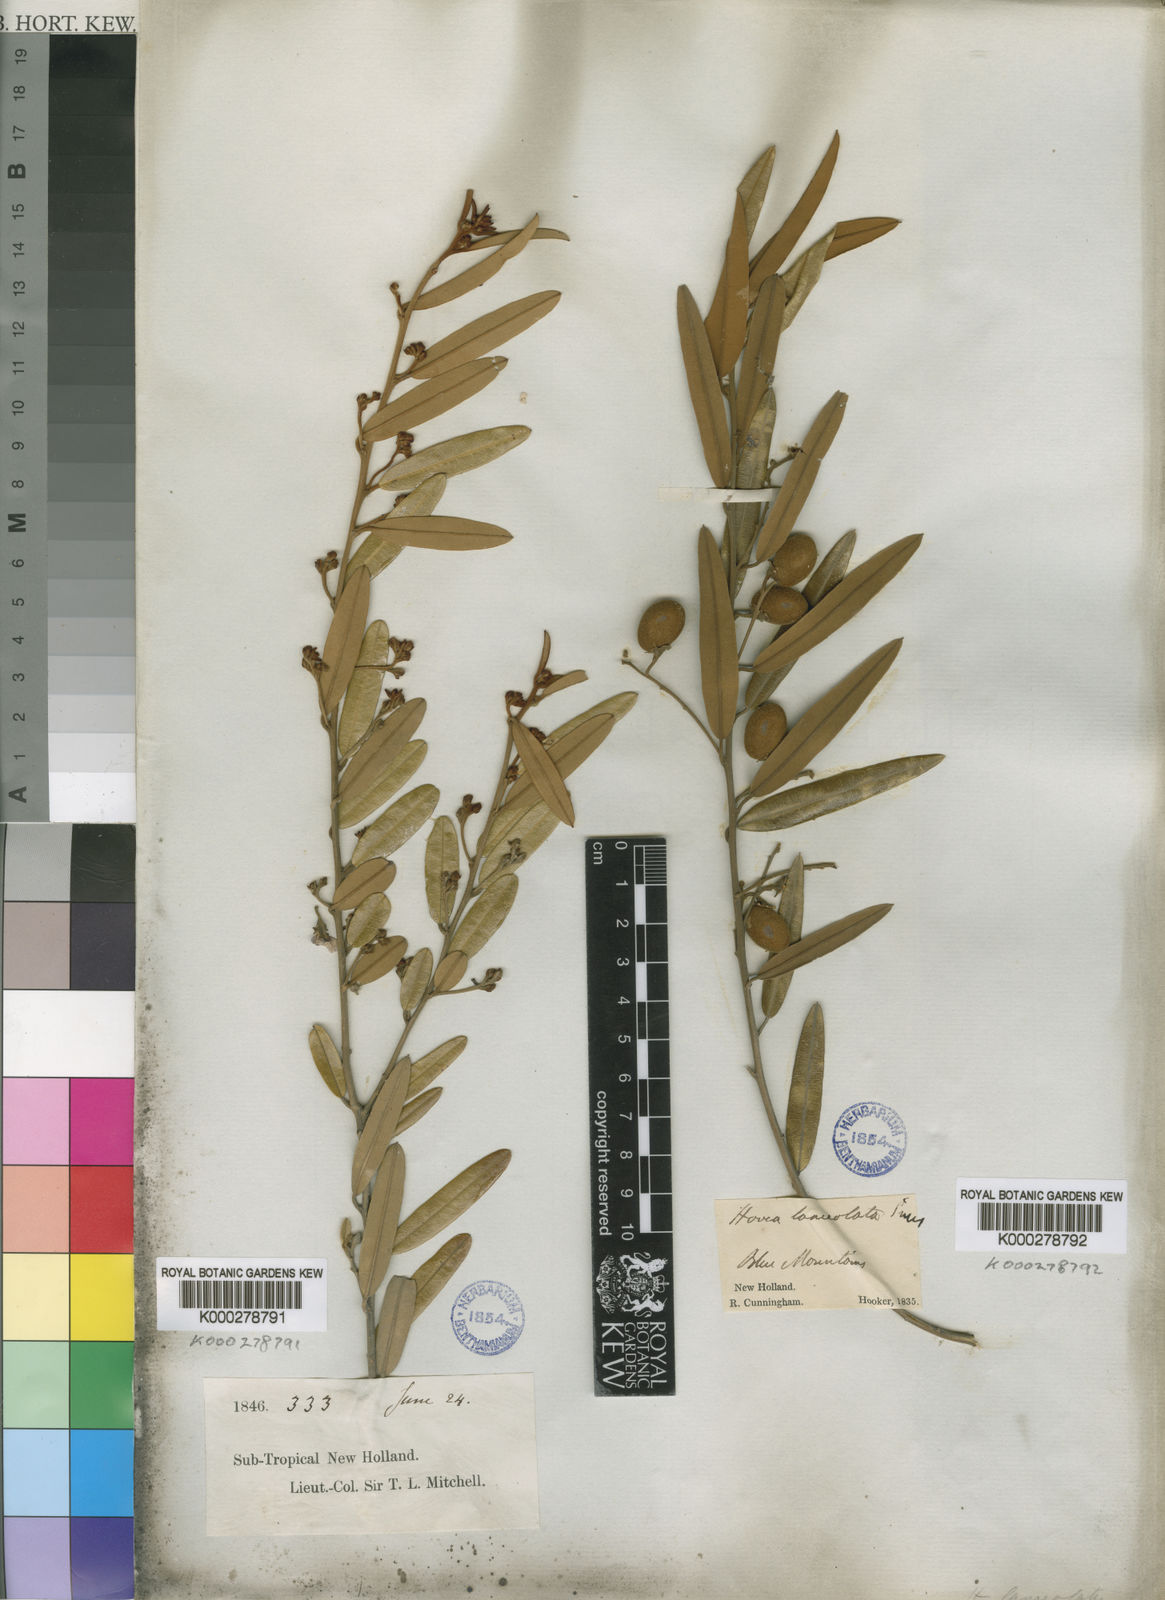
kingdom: Plantae
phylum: Tracheophyta
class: Magnoliopsida
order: Fabales
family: Fabaceae
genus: Hovea
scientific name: Hovea lanceolata
